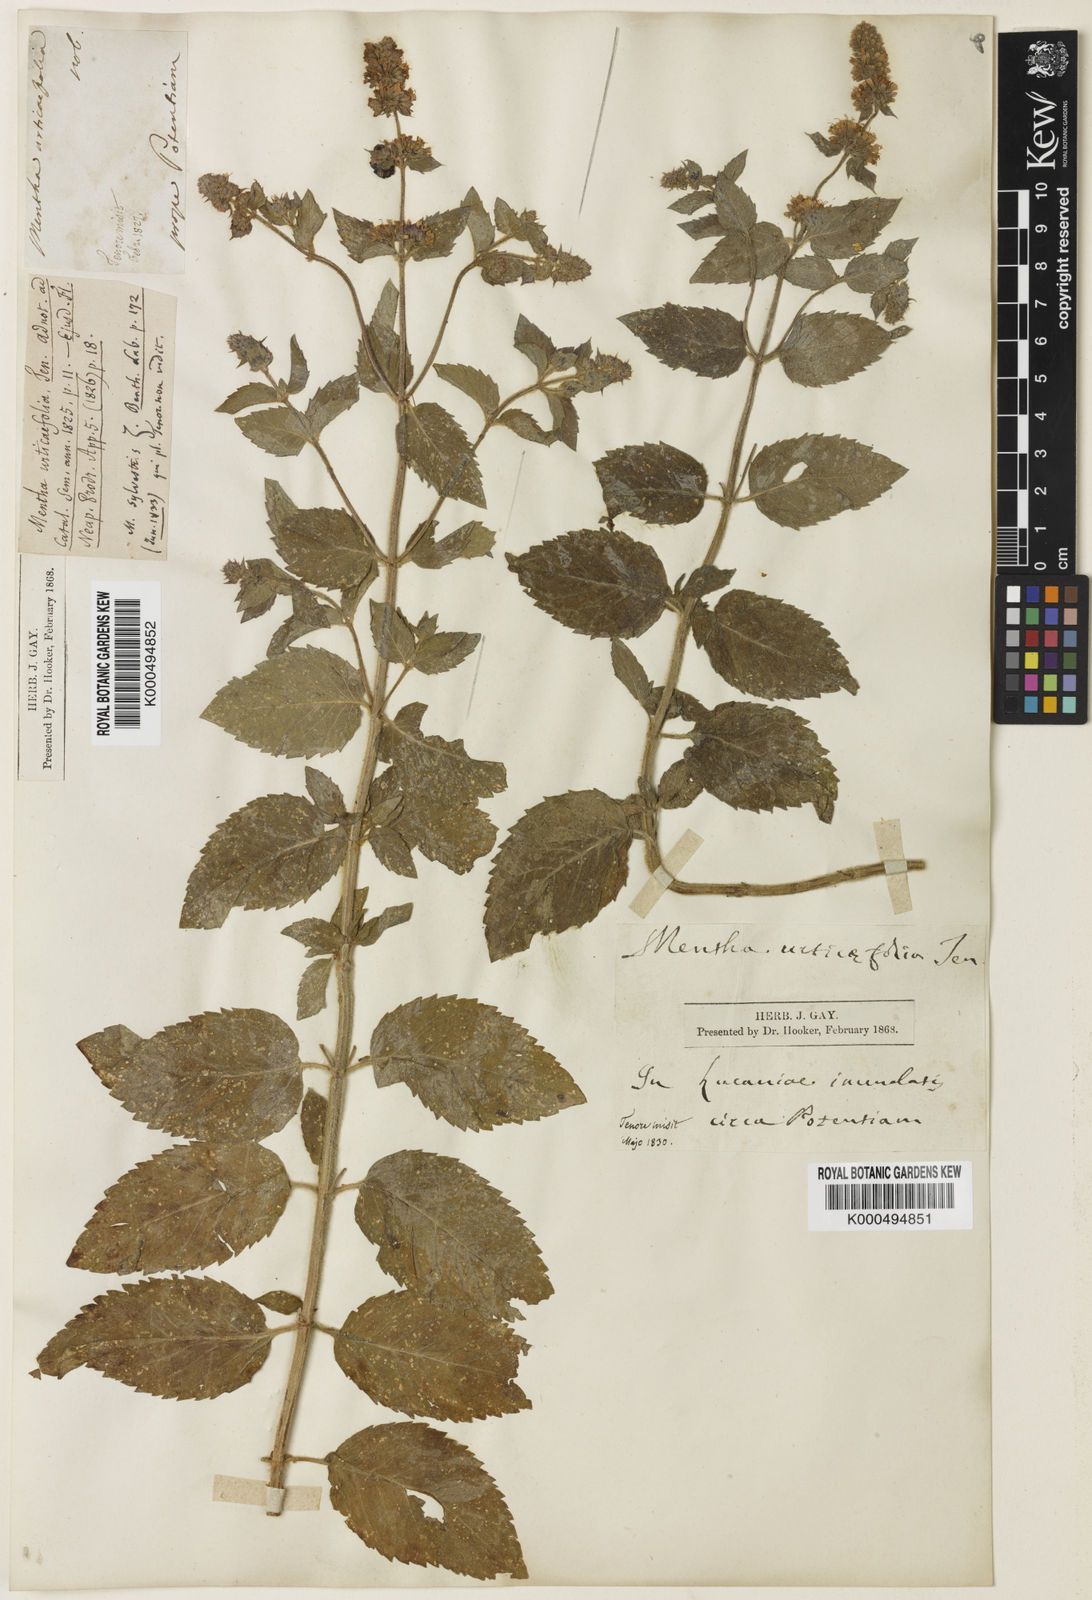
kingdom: Plantae
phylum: Tracheophyta
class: Magnoliopsida
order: Lamiales
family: Lamiaceae
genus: Mentha
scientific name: Mentha dumetorum
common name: Bush-loving mint
